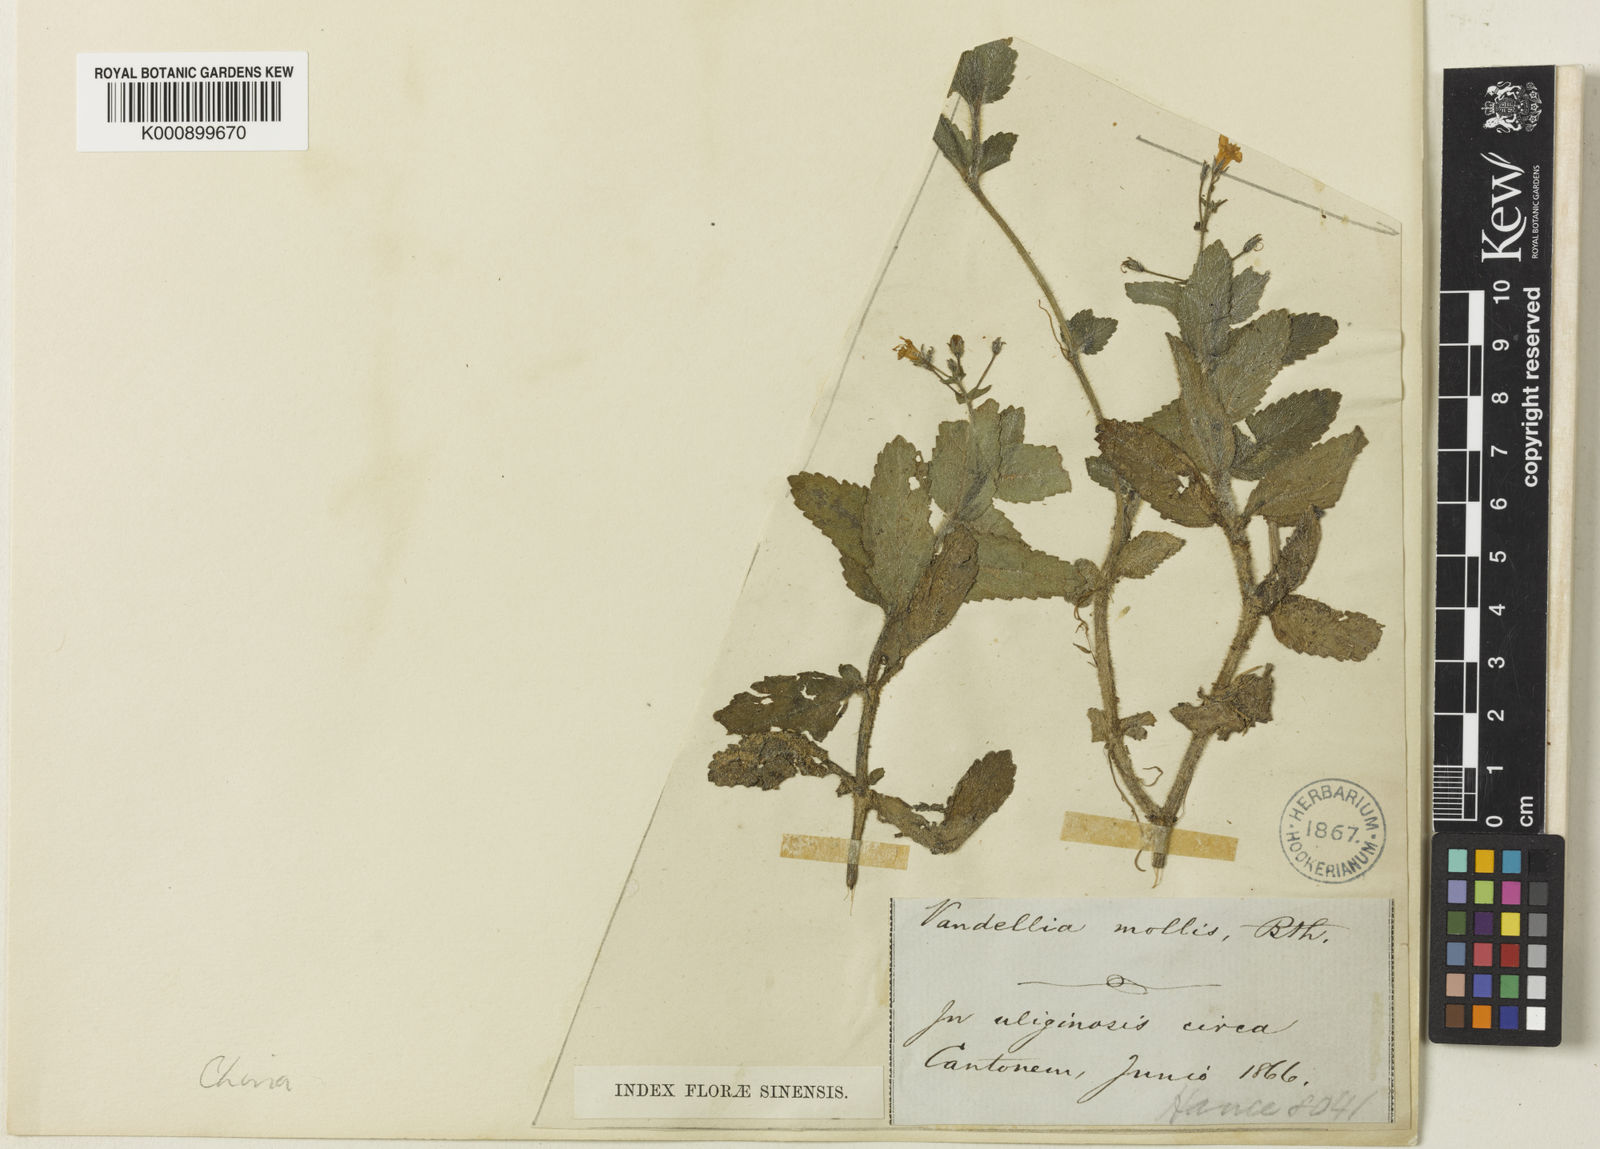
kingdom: Plantae
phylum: Tracheophyta
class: Magnoliopsida
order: Lamiales
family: Linderniaceae
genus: Vandellia
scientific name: Vandellia montana
